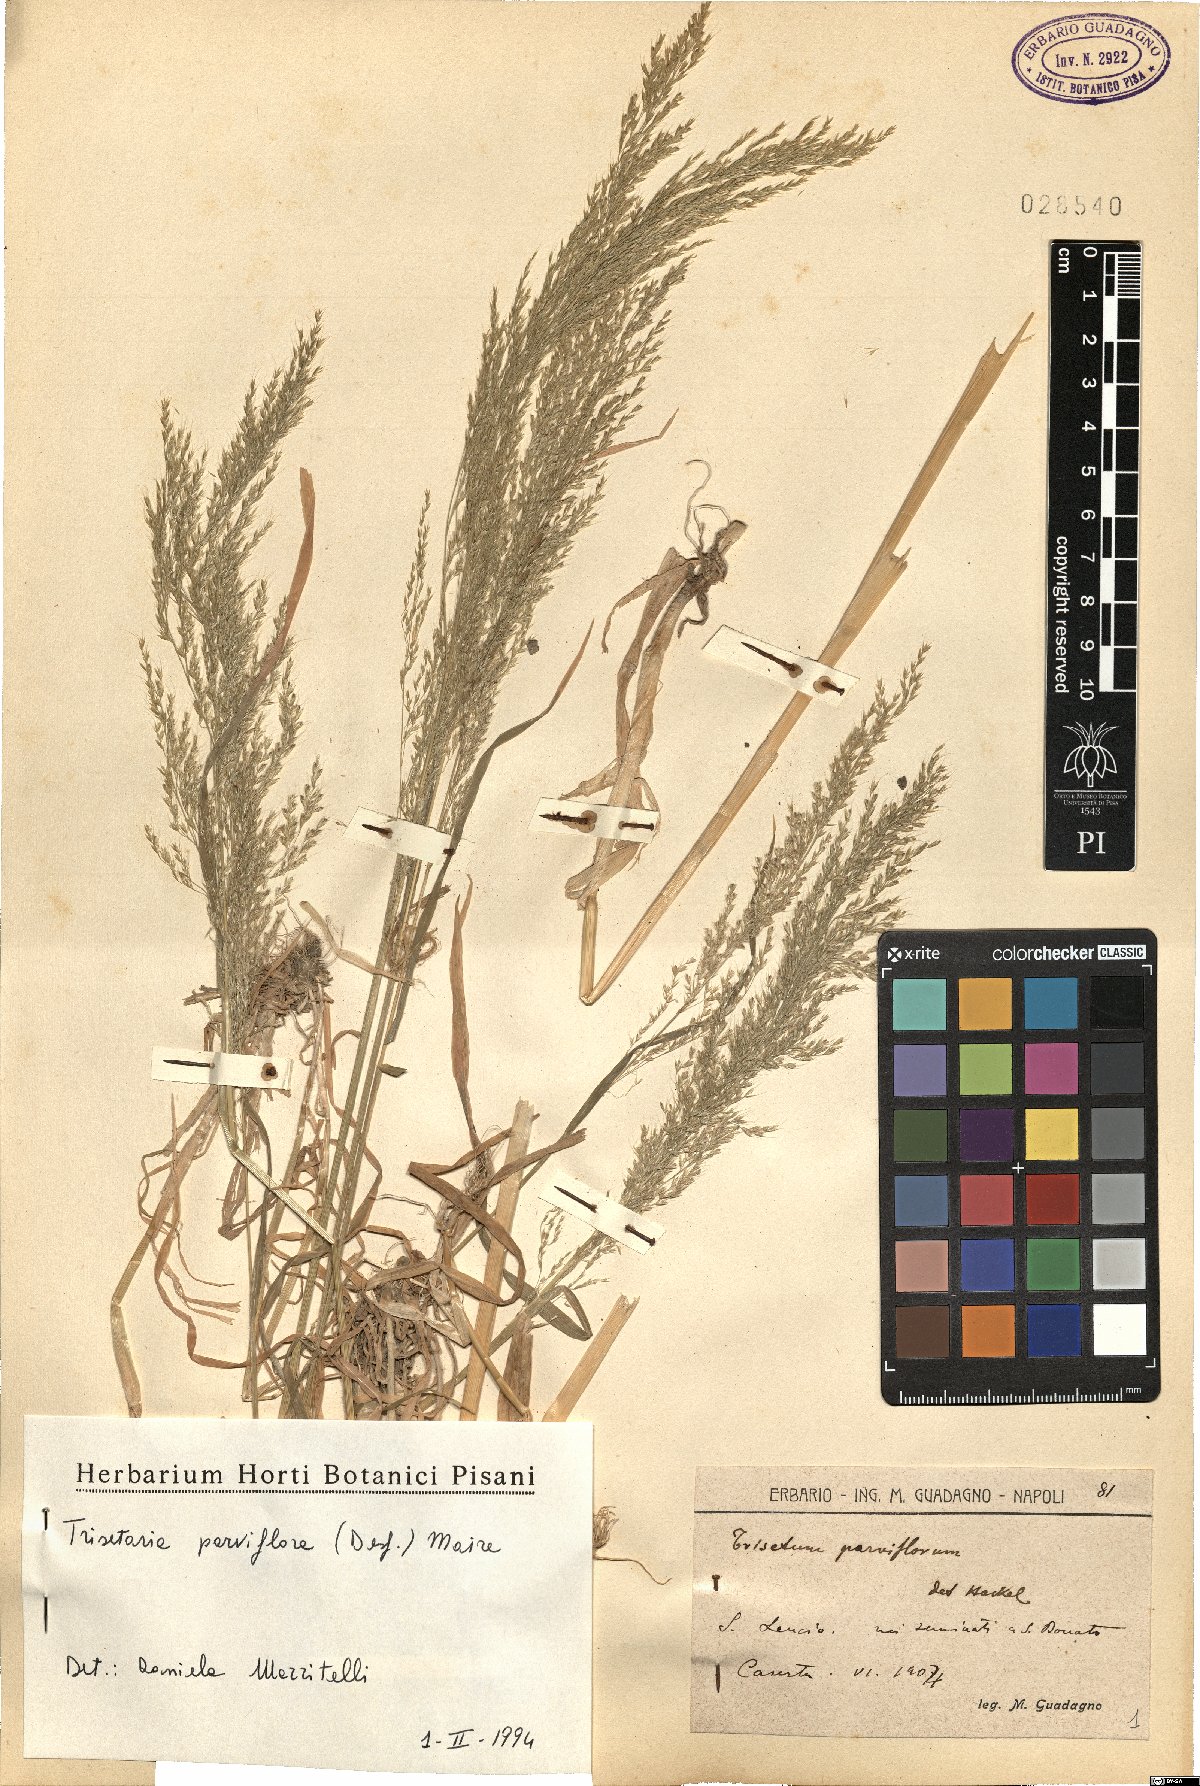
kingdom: Plantae
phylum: Tracheophyta
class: Liliopsida
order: Poales
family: Poaceae
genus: Trisetaria
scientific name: Trisetaria parviflora
